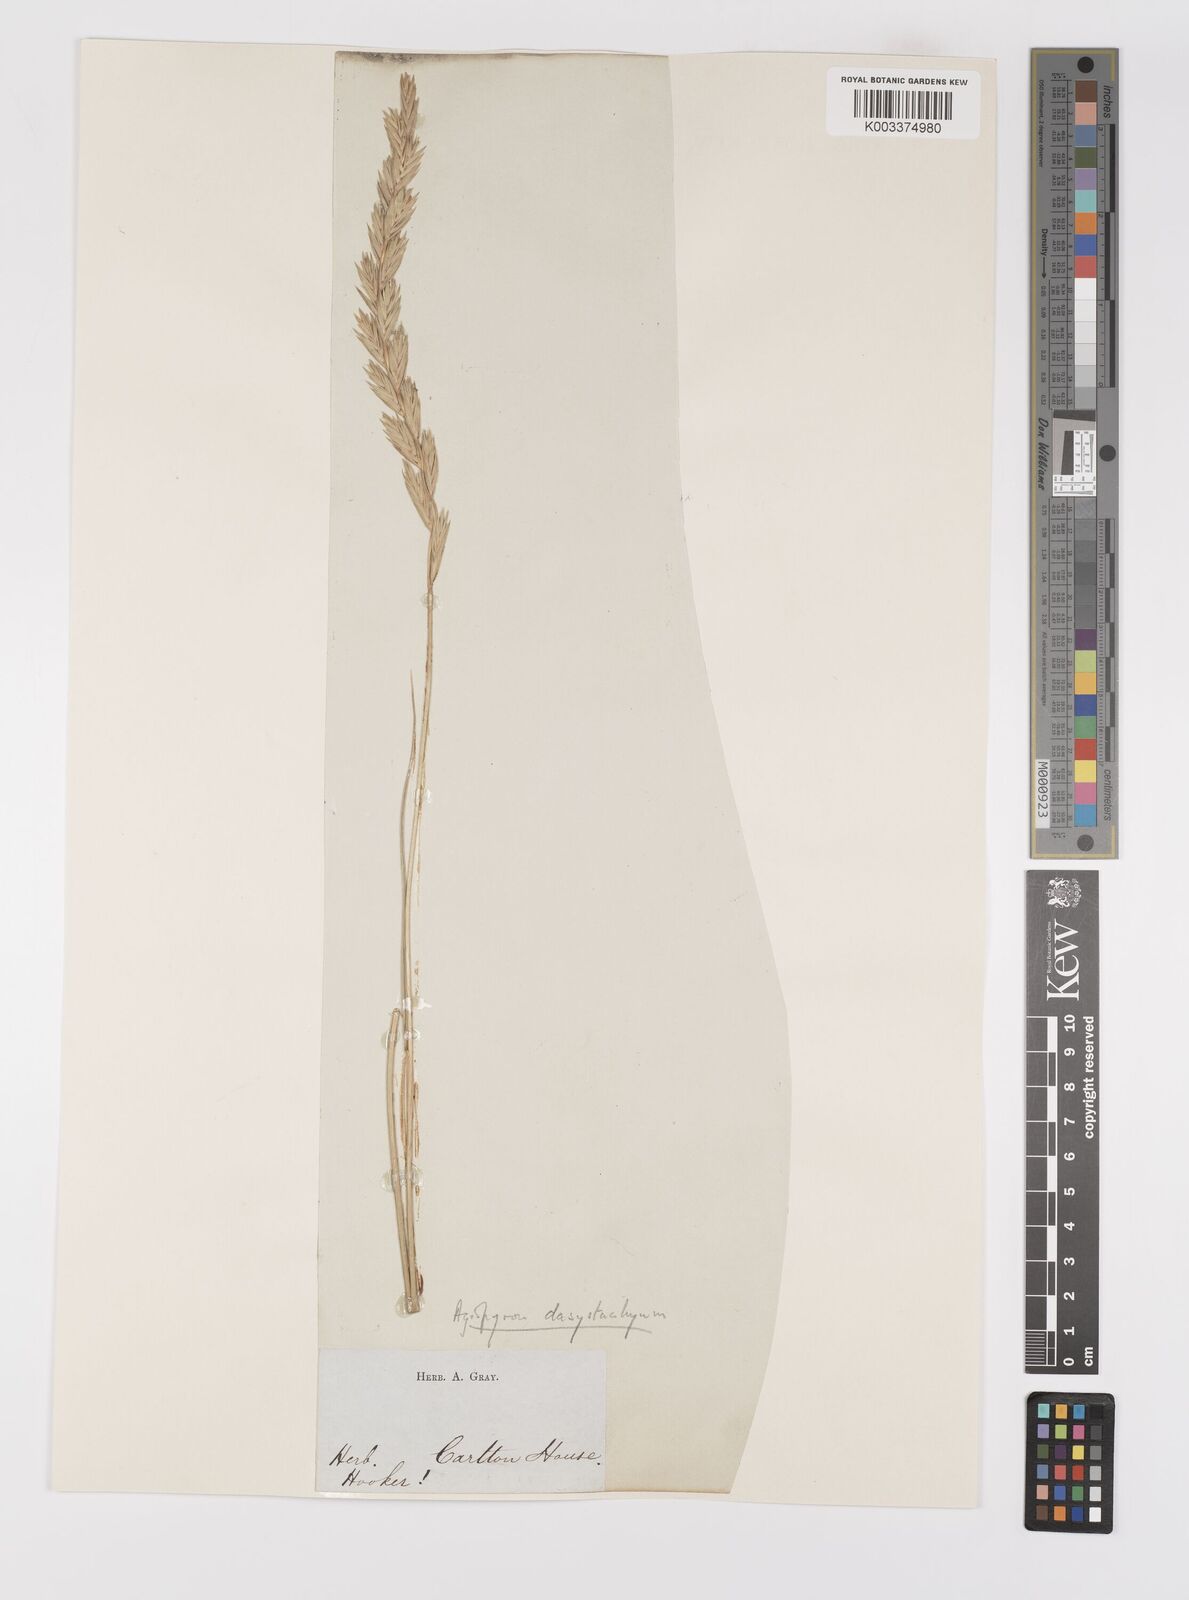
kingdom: Plantae
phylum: Tracheophyta
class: Liliopsida
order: Poales
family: Poaceae
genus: Elymus
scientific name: Elymus lanceolatus
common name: Thick-spike wheatgrass
